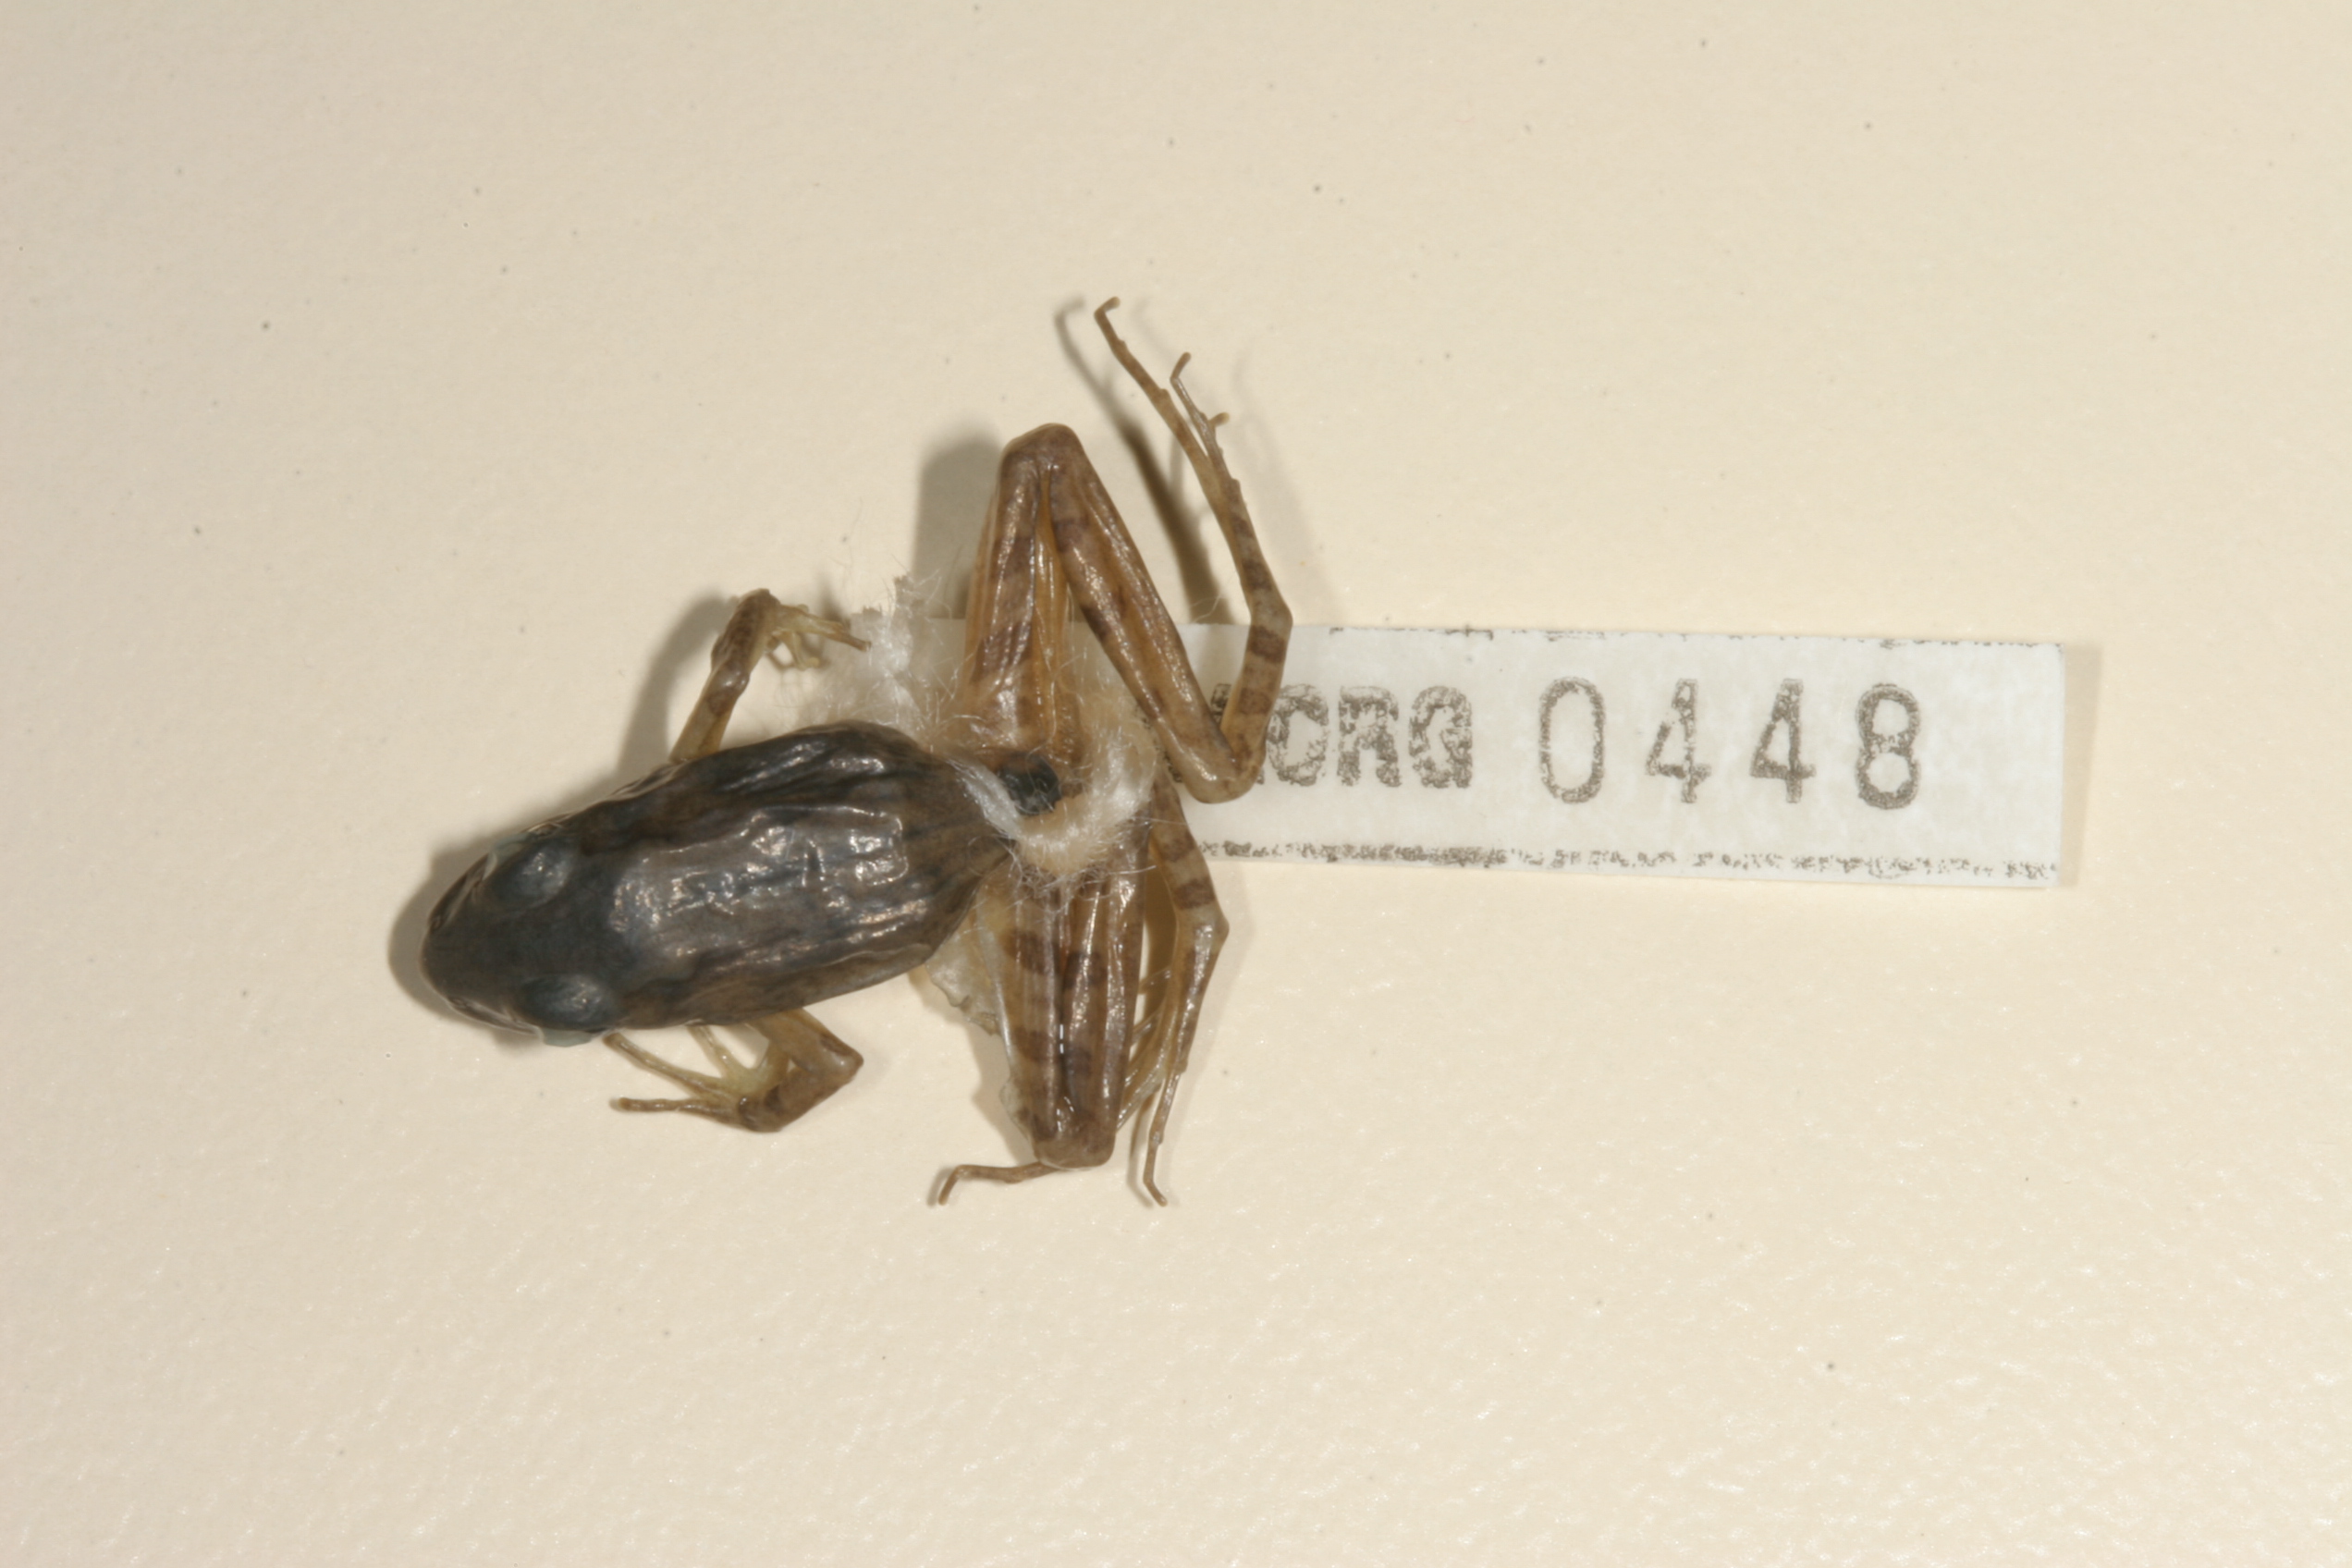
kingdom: Animalia
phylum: Chordata
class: Amphibia
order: Anura
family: Pyxicephalidae
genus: Strongylopus
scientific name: Strongylopus grayii
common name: Gray's stream frog
